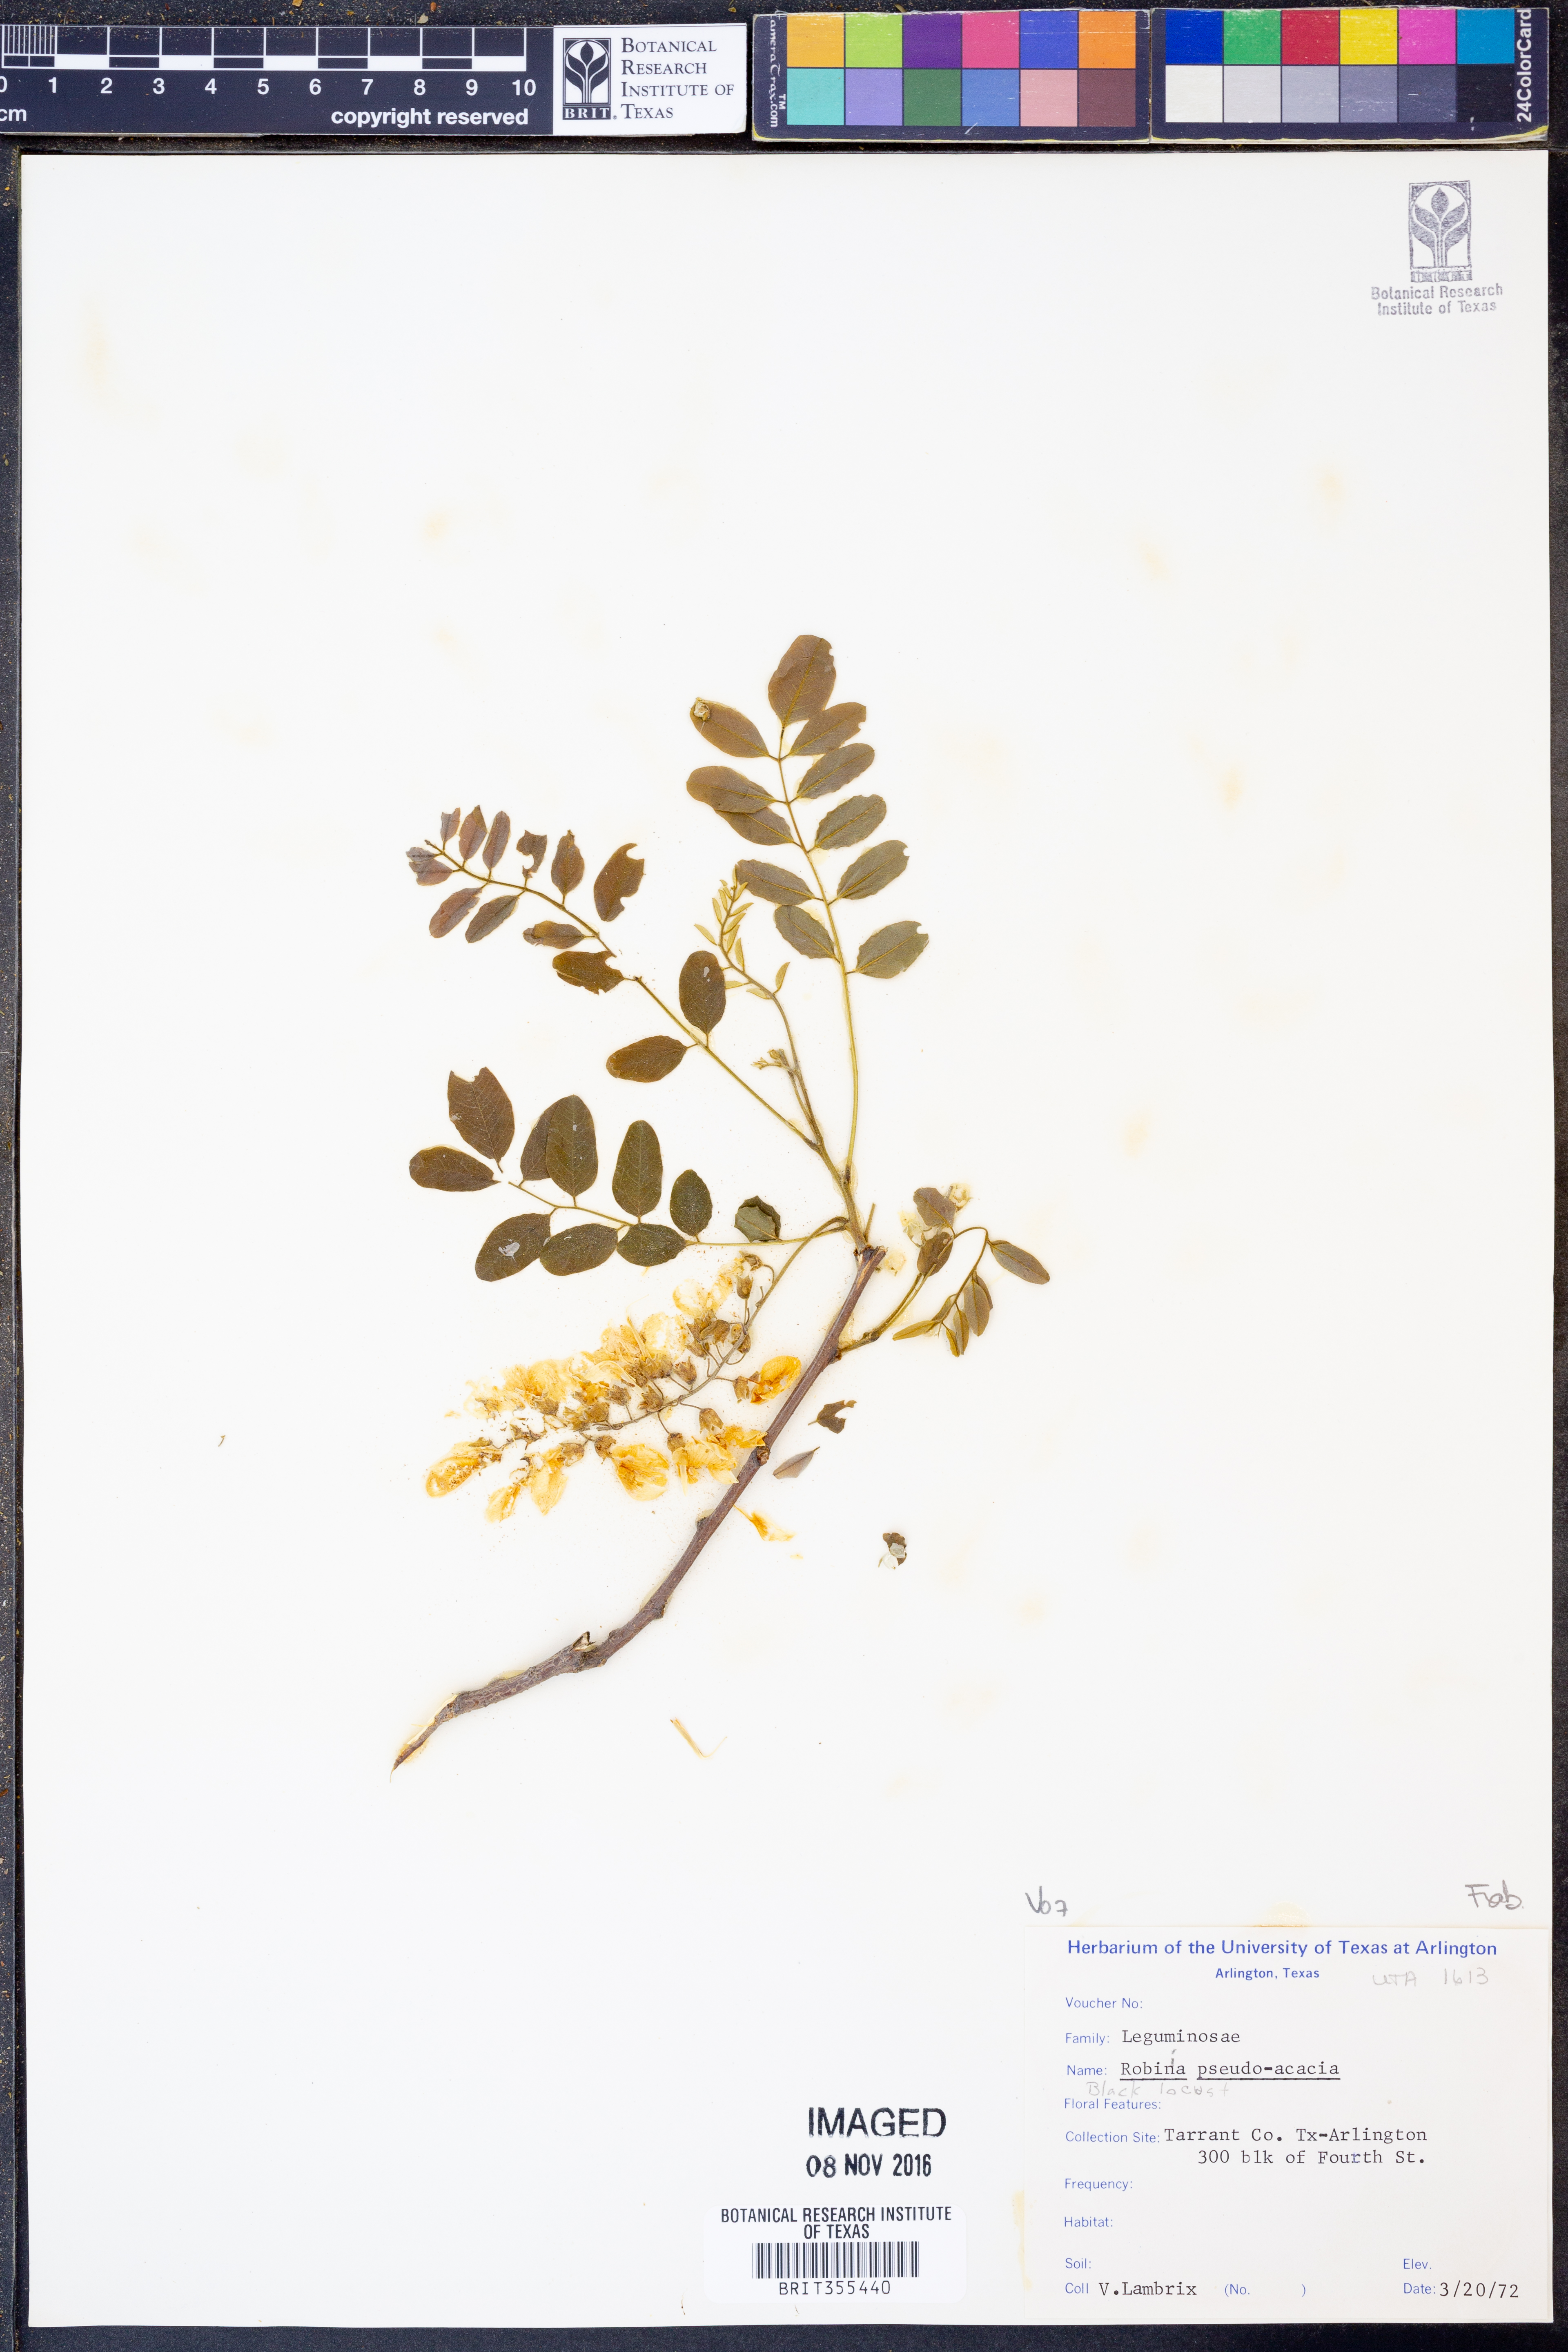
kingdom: Plantae
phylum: Tracheophyta
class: Magnoliopsida
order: Fabales
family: Fabaceae
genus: Robinia
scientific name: Robinia pseudoacacia
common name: Black locust
